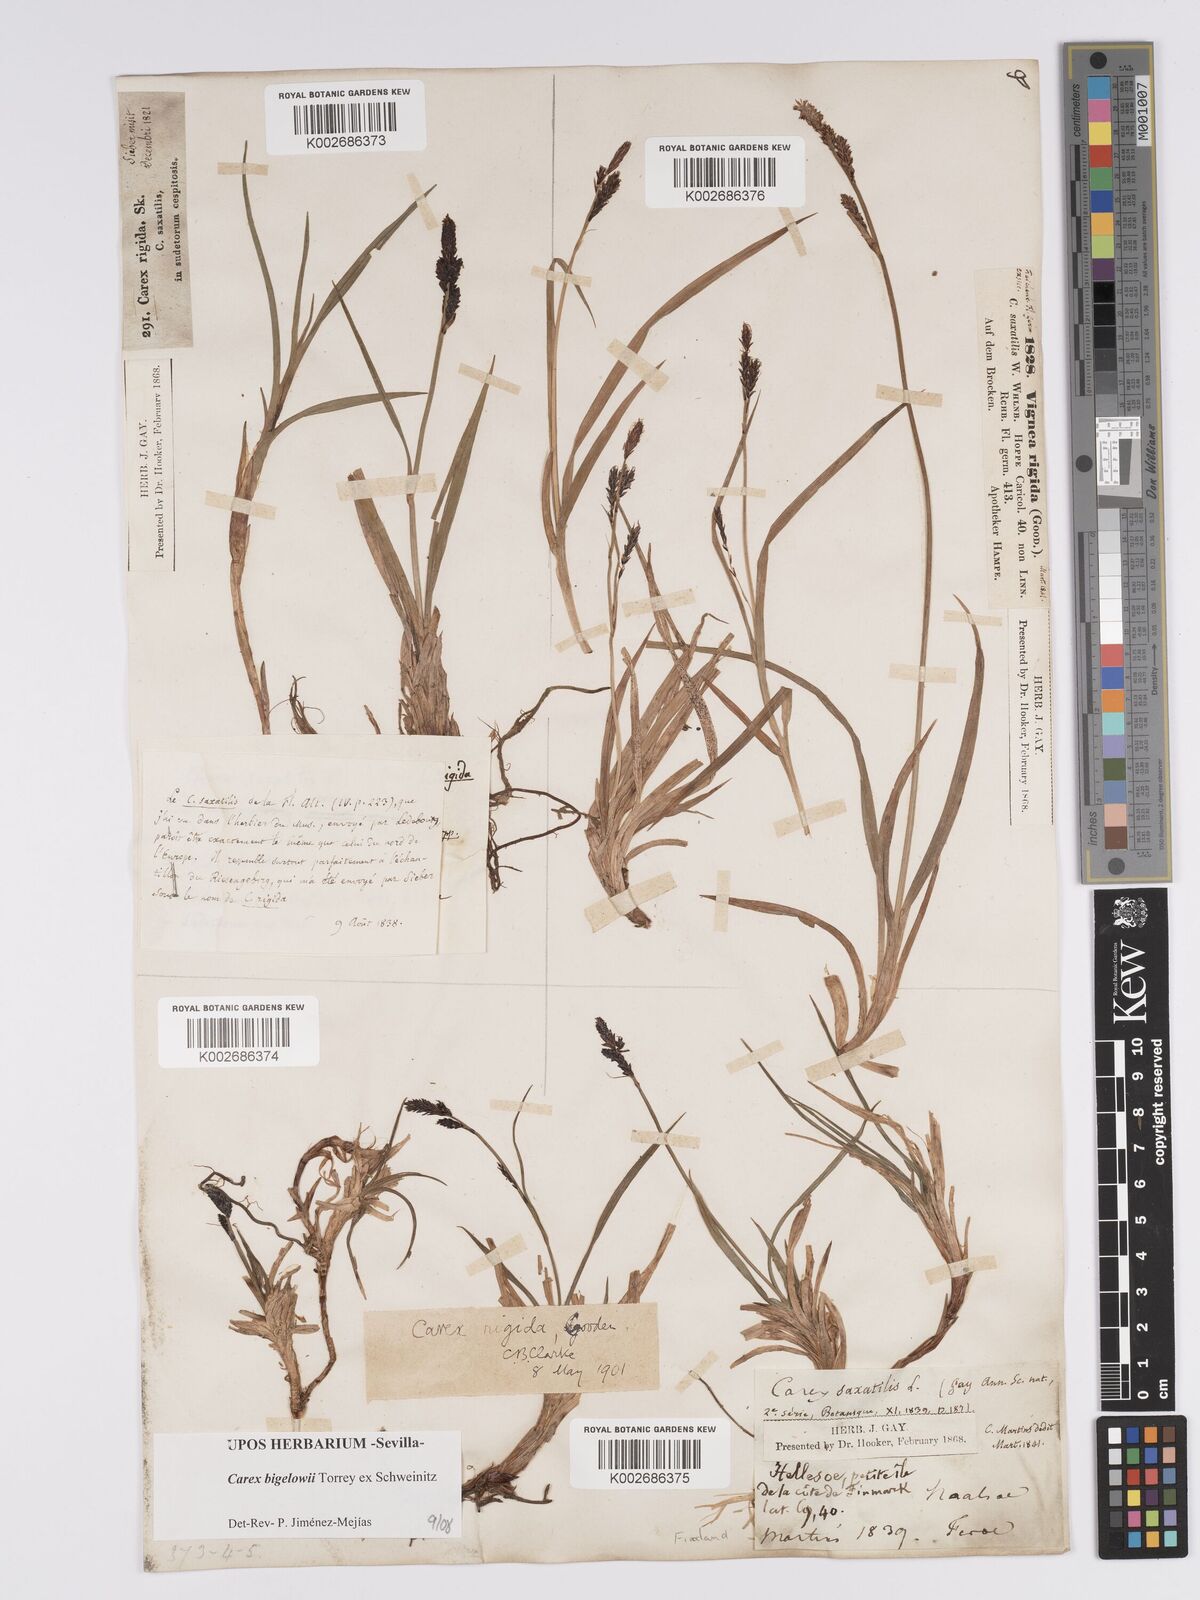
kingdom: Plantae
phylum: Tracheophyta
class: Liliopsida
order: Poales
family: Cyperaceae
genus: Carex
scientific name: Carex bigelowii
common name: Stiff sedge
